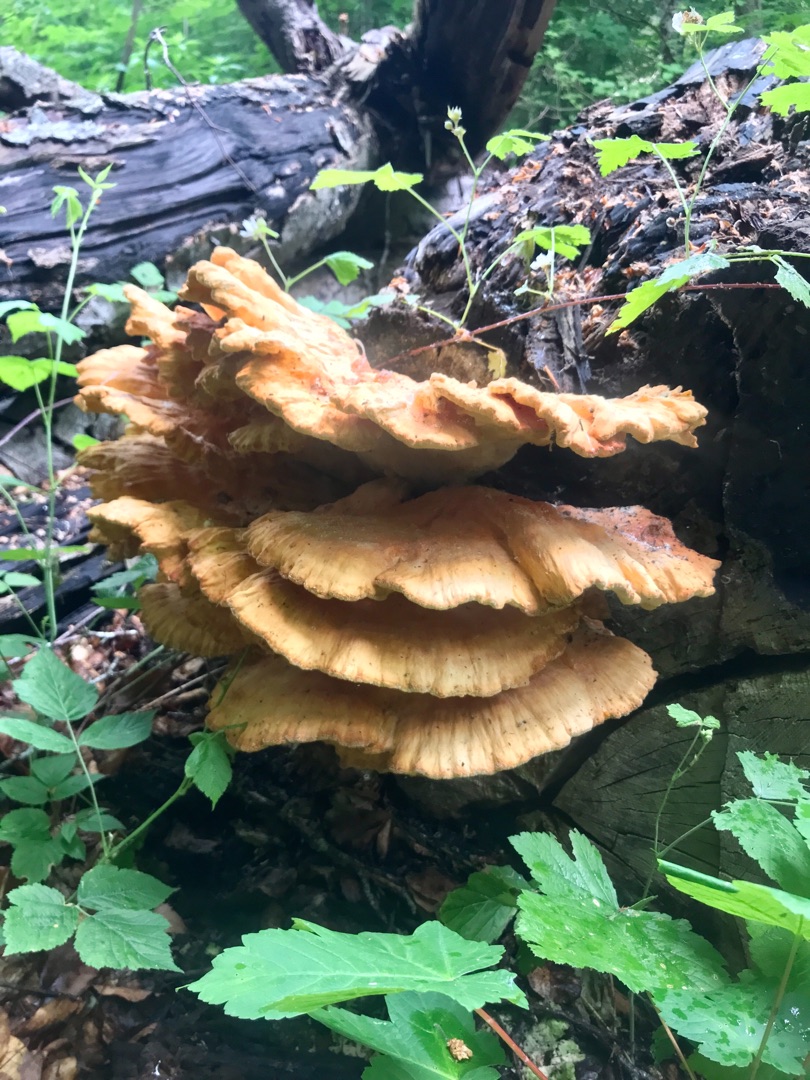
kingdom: Fungi
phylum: Basidiomycota
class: Agaricomycetes
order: Polyporales
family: Laetiporaceae
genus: Laetiporus
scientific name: Laetiporus sulphureus
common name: Svovlporesvamp
